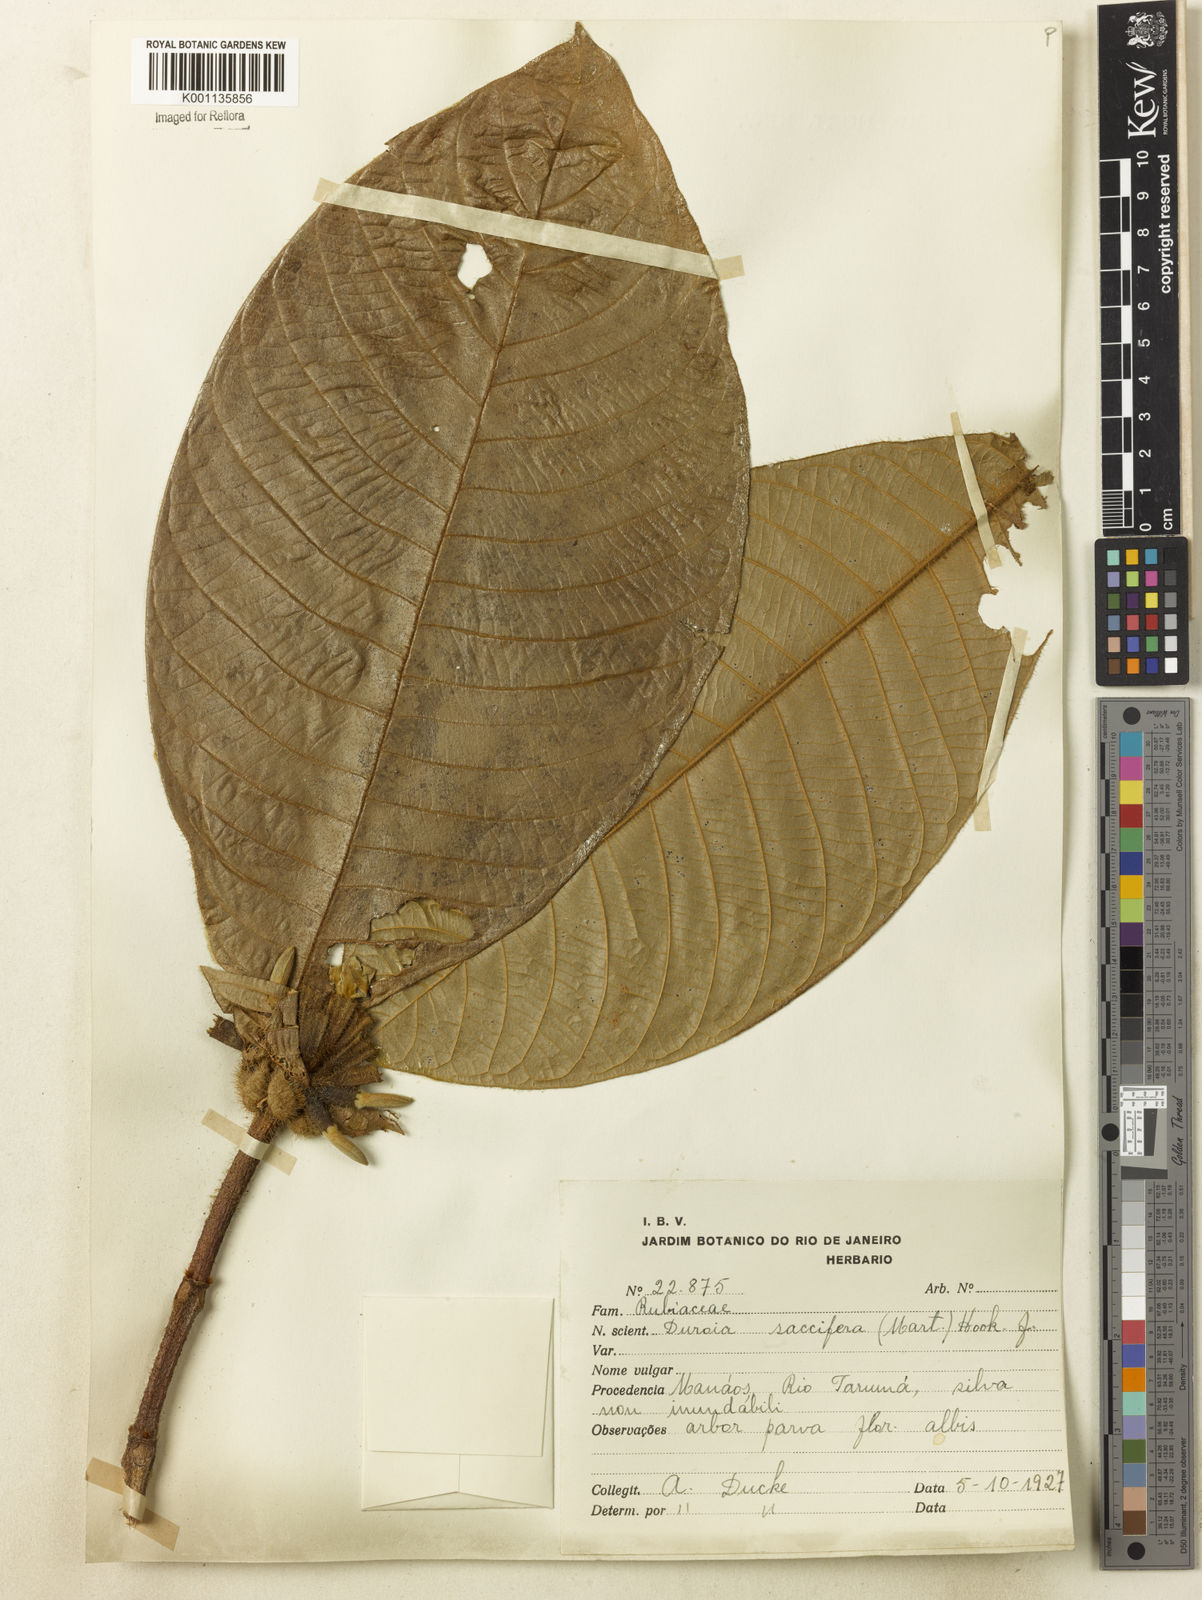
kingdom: Plantae
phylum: Tracheophyta
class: Magnoliopsida
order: Gentianales
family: Rubiaceae
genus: Duroia
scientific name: Duroia saccifera
